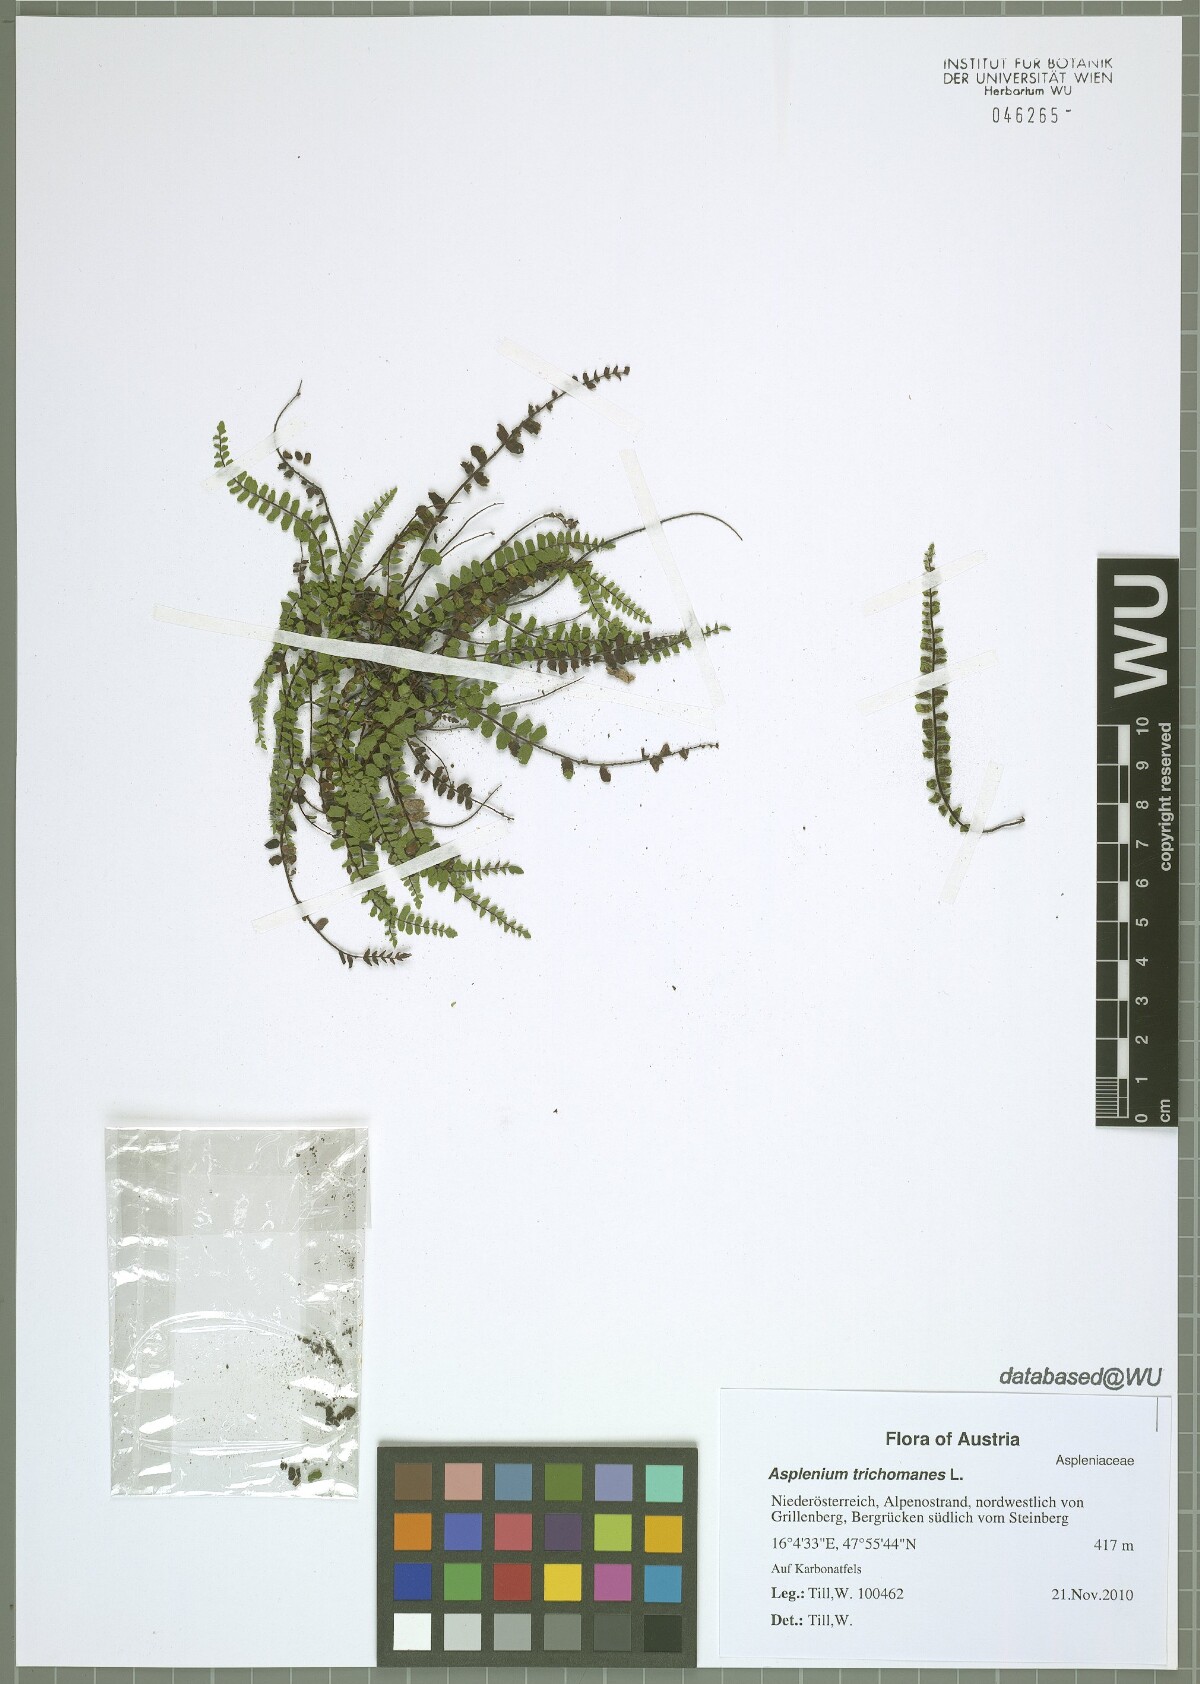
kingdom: Plantae
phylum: Tracheophyta
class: Polypodiopsida
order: Polypodiales
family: Aspleniaceae
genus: Asplenium
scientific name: Asplenium trichomanes
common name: Maidenhair spleenwort
